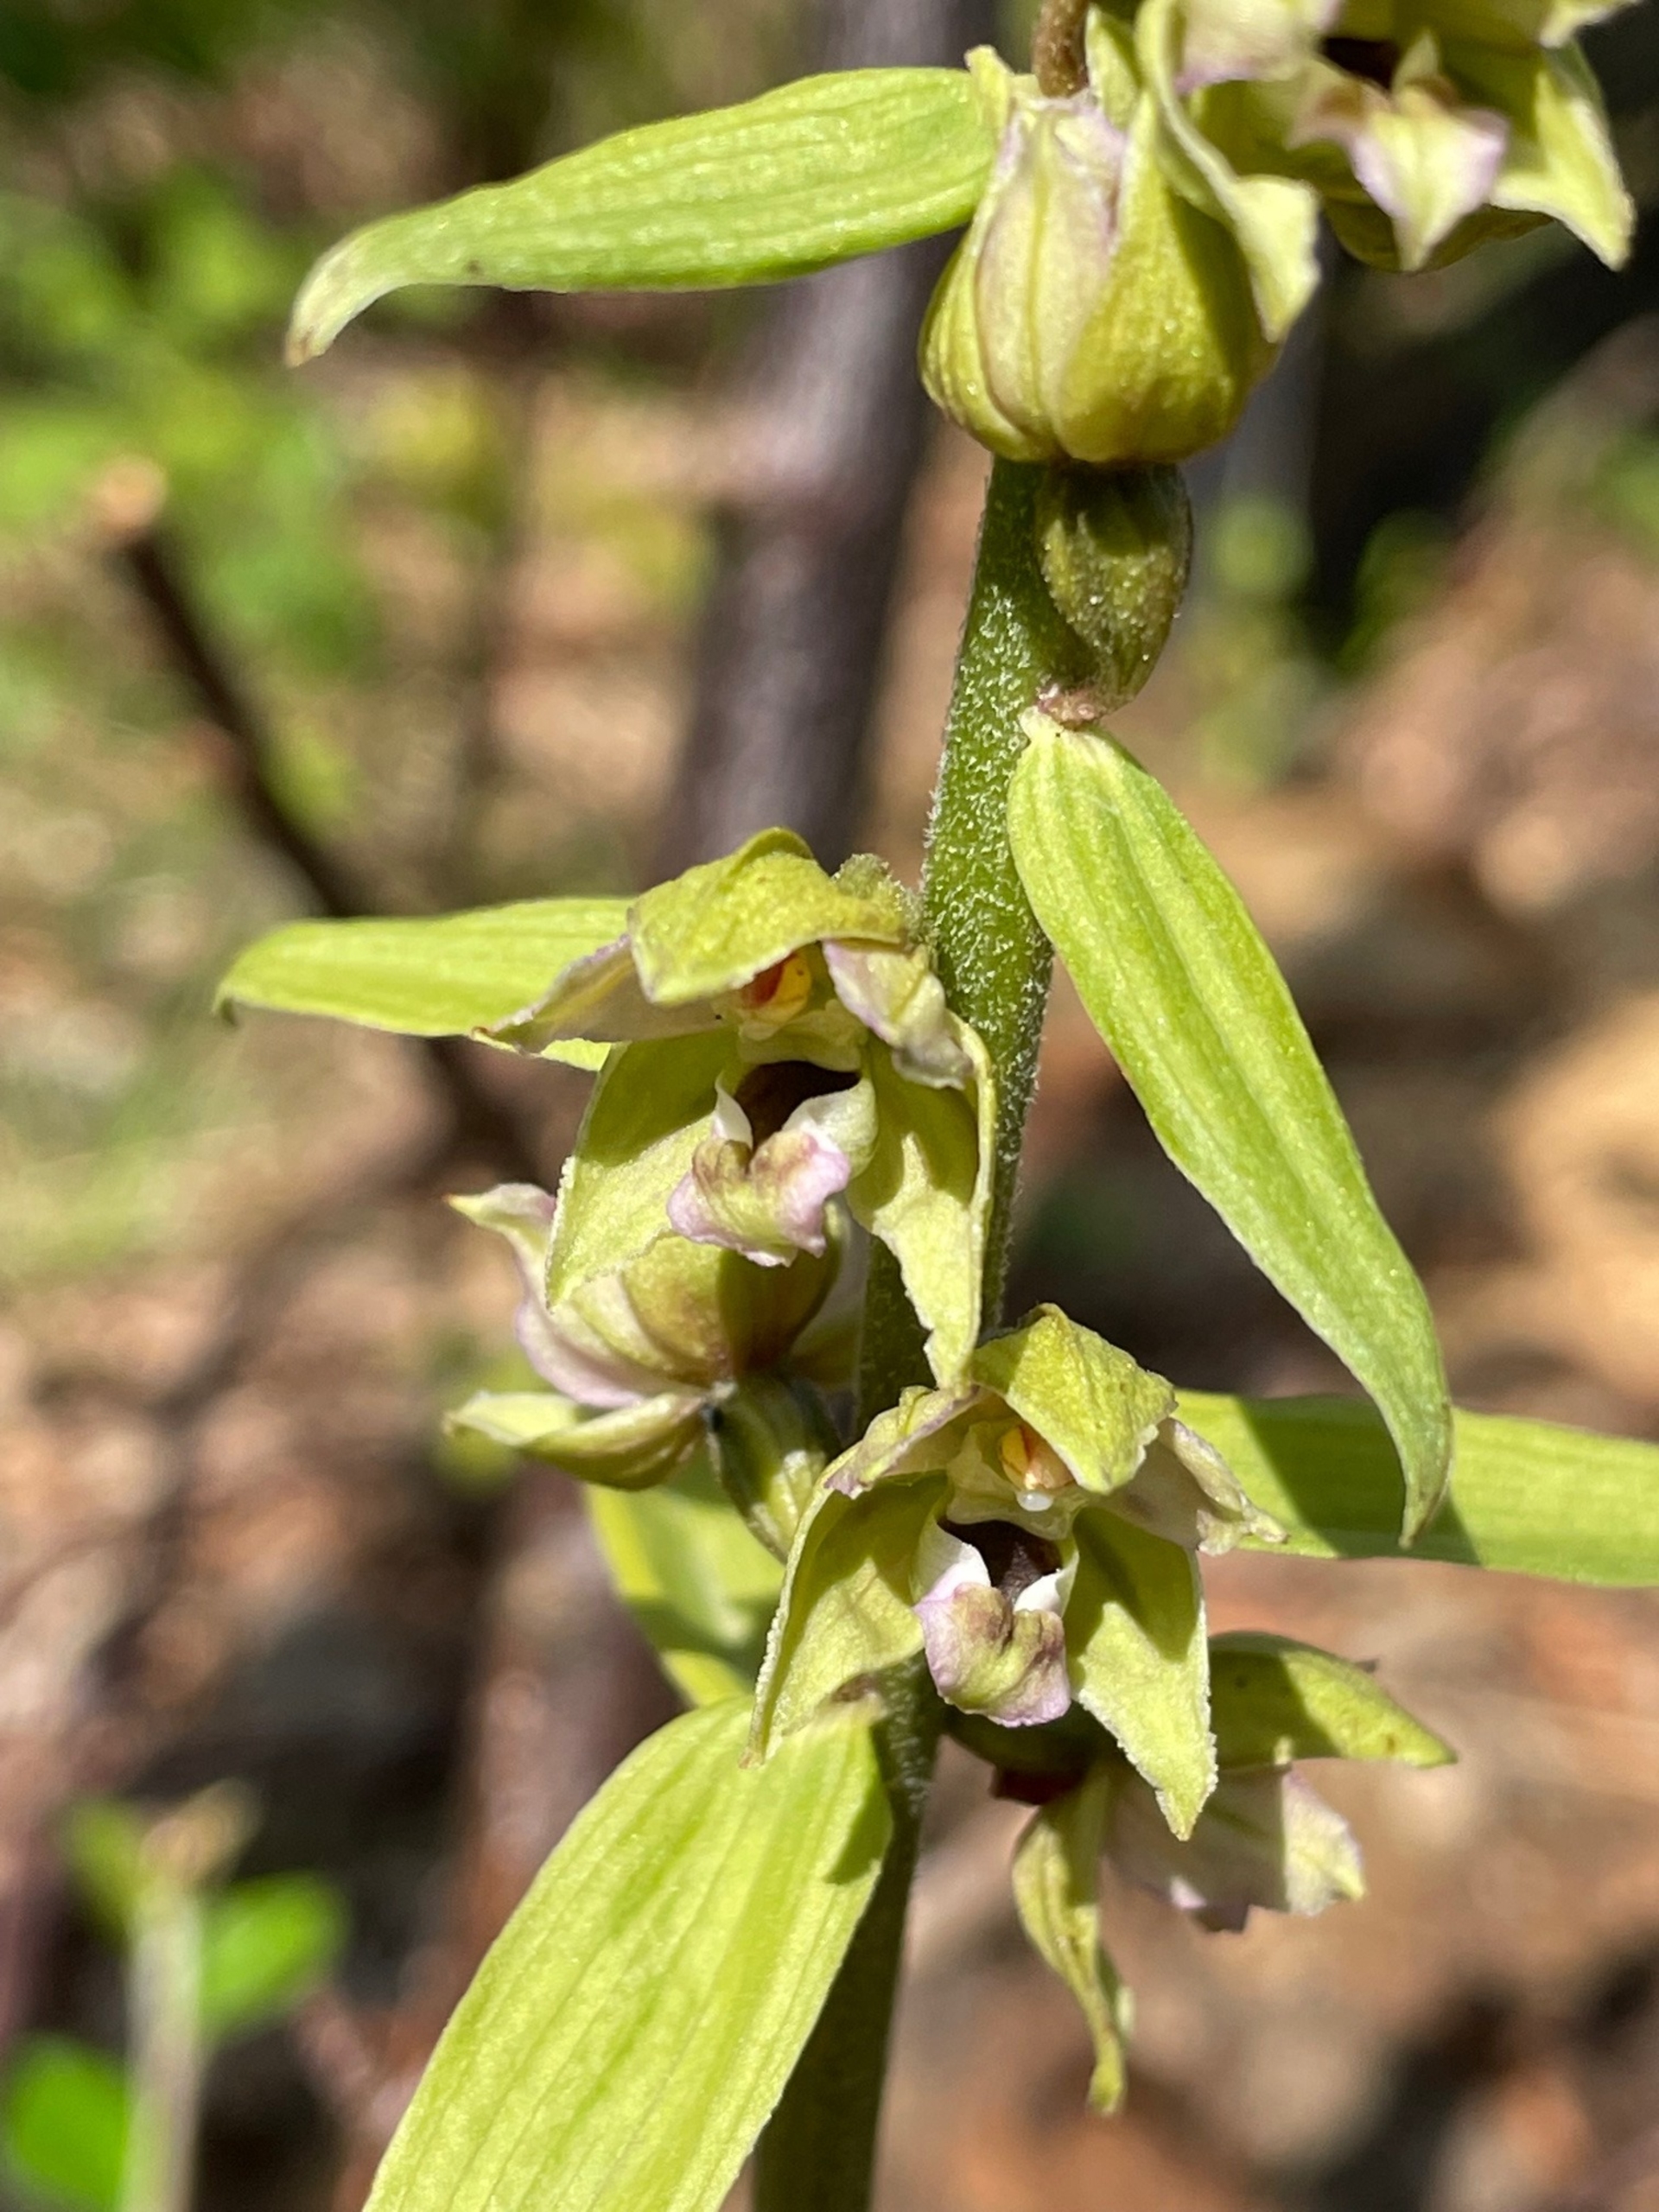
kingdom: Plantae
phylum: Tracheophyta
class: Liliopsida
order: Asparagales
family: Orchidaceae
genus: Epipactis
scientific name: Epipactis helleborine
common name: Skov-hullæbe
